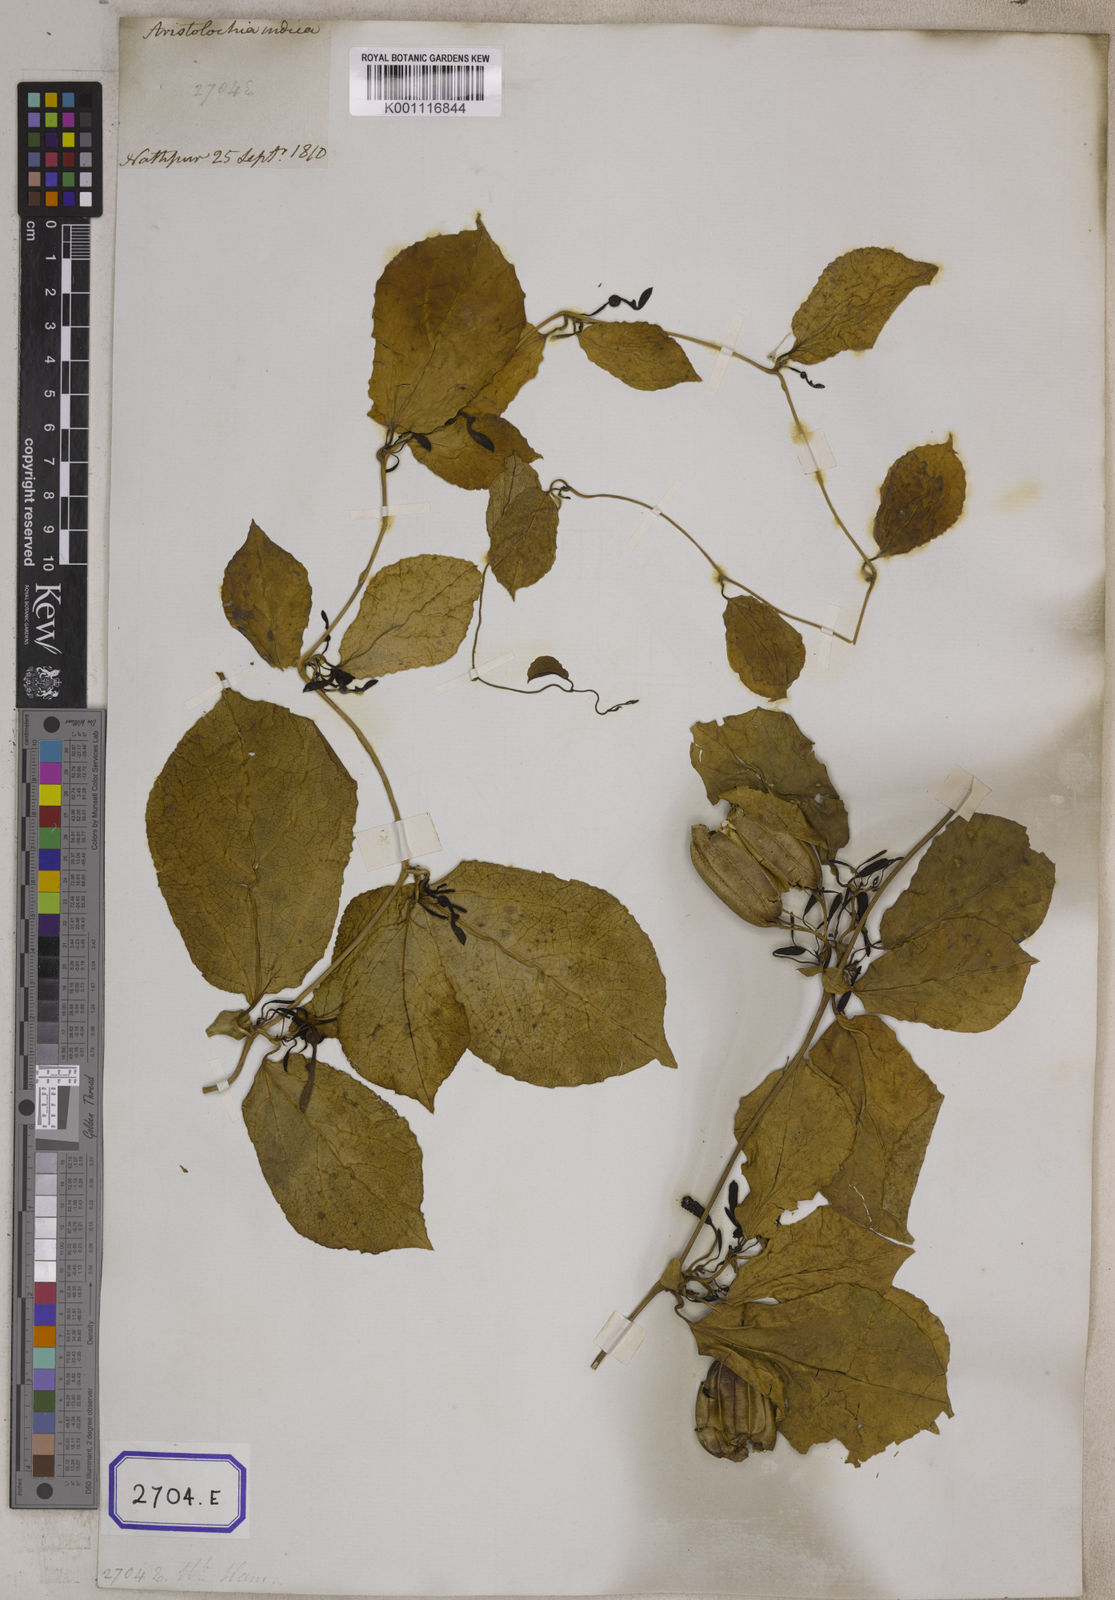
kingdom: Plantae
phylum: Tracheophyta
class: Magnoliopsida
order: Piperales
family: Aristolochiaceae
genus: Aristolochia
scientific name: Aristolochia indica
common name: Indian birthwort
